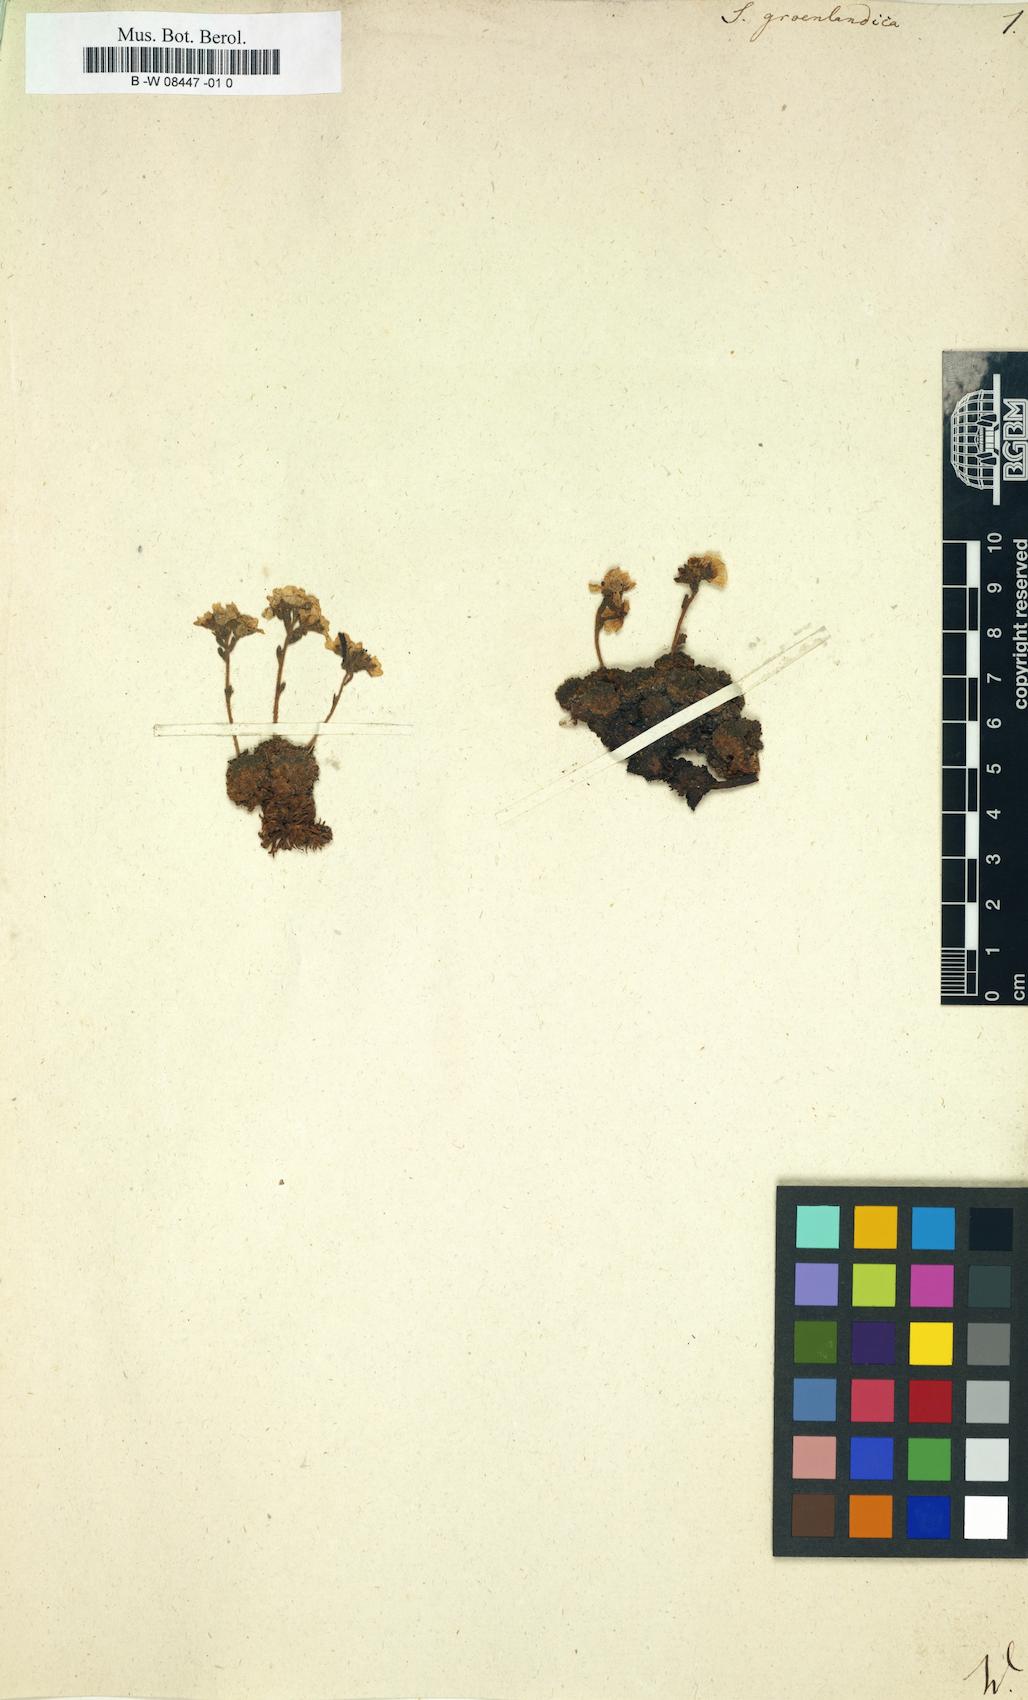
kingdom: Plantae
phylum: Tracheophyta
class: Magnoliopsida
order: Saxifragales
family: Saxifragaceae
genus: Saxifraga
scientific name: Saxifraga
